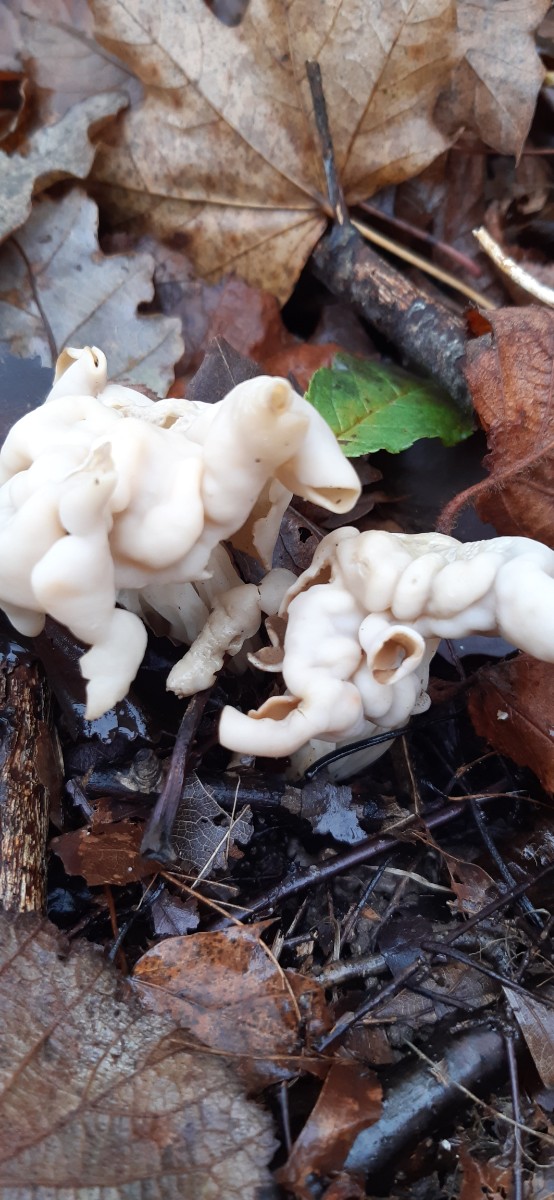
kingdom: Fungi
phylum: Ascomycota
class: Pezizomycetes
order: Pezizales
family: Helvellaceae
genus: Helvella
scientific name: Helvella crispa
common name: kruset foldhat
